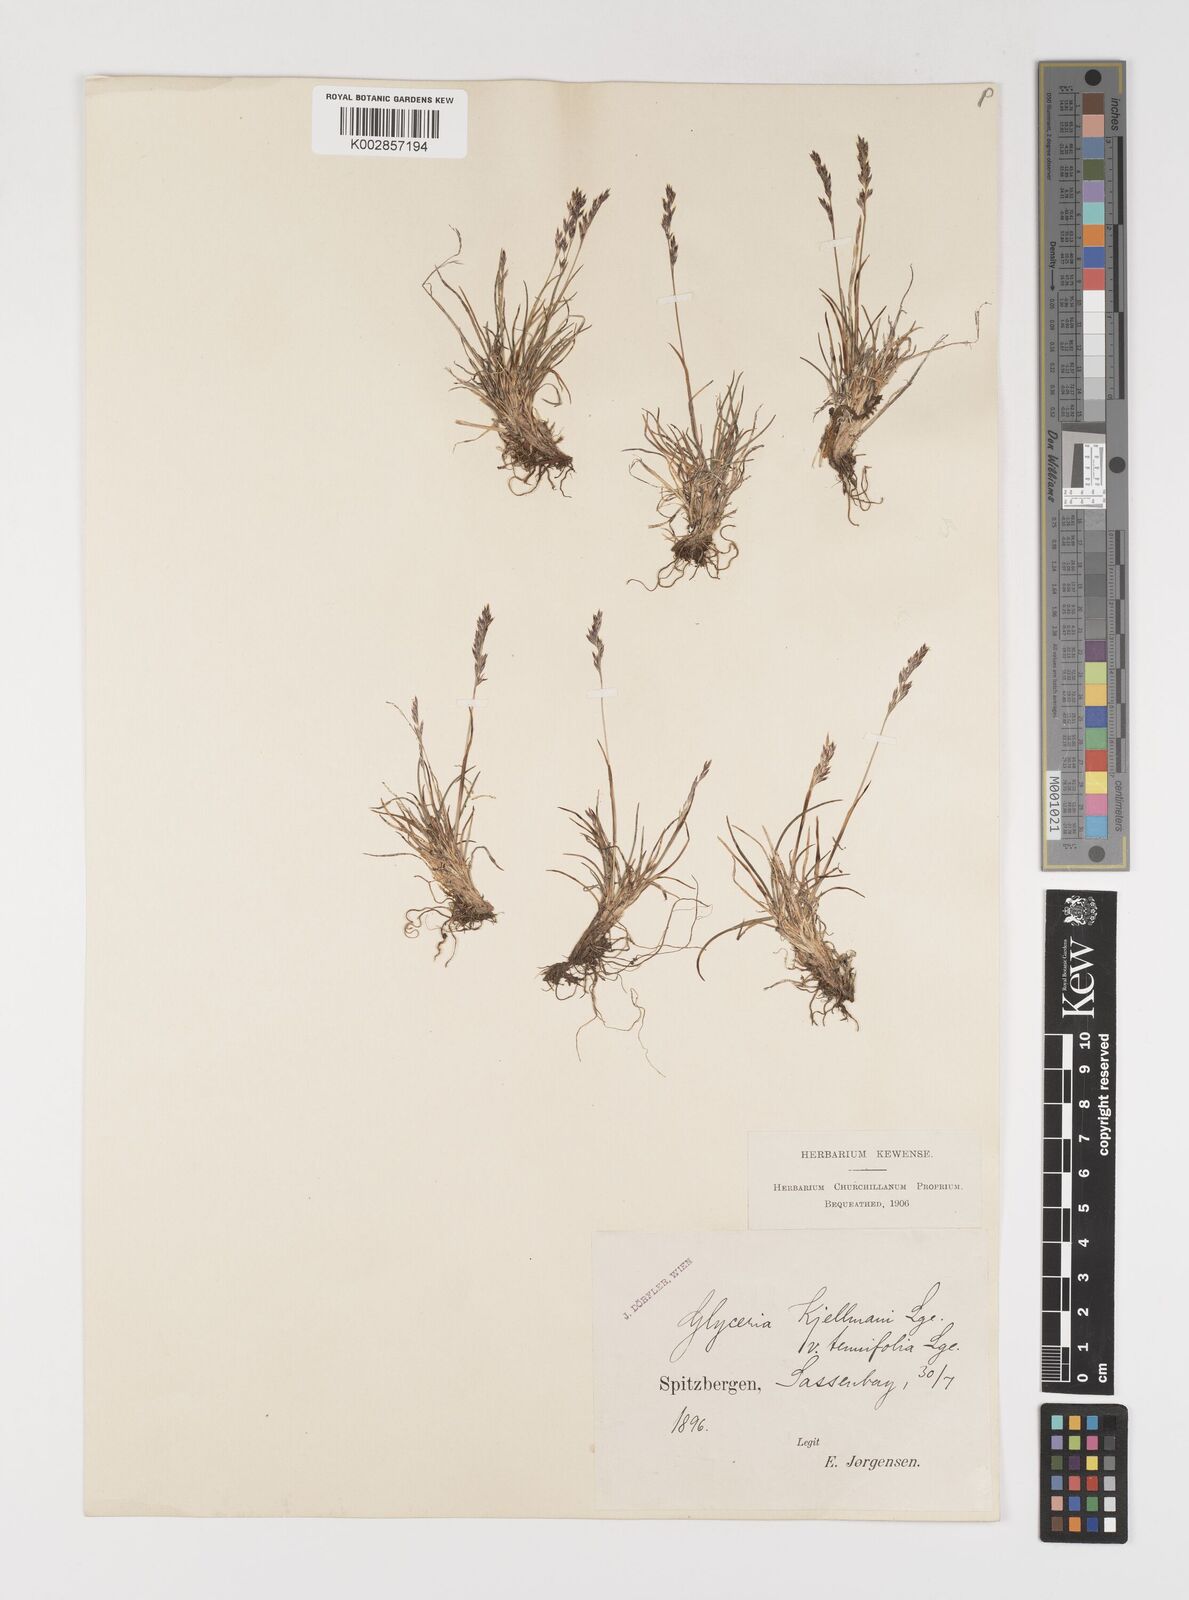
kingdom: Plantae
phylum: Tracheophyta
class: Liliopsida
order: Poales
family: Poaceae
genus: Puccinellia
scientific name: Puccinellia vahliana
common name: Vahl's alkaligrass
